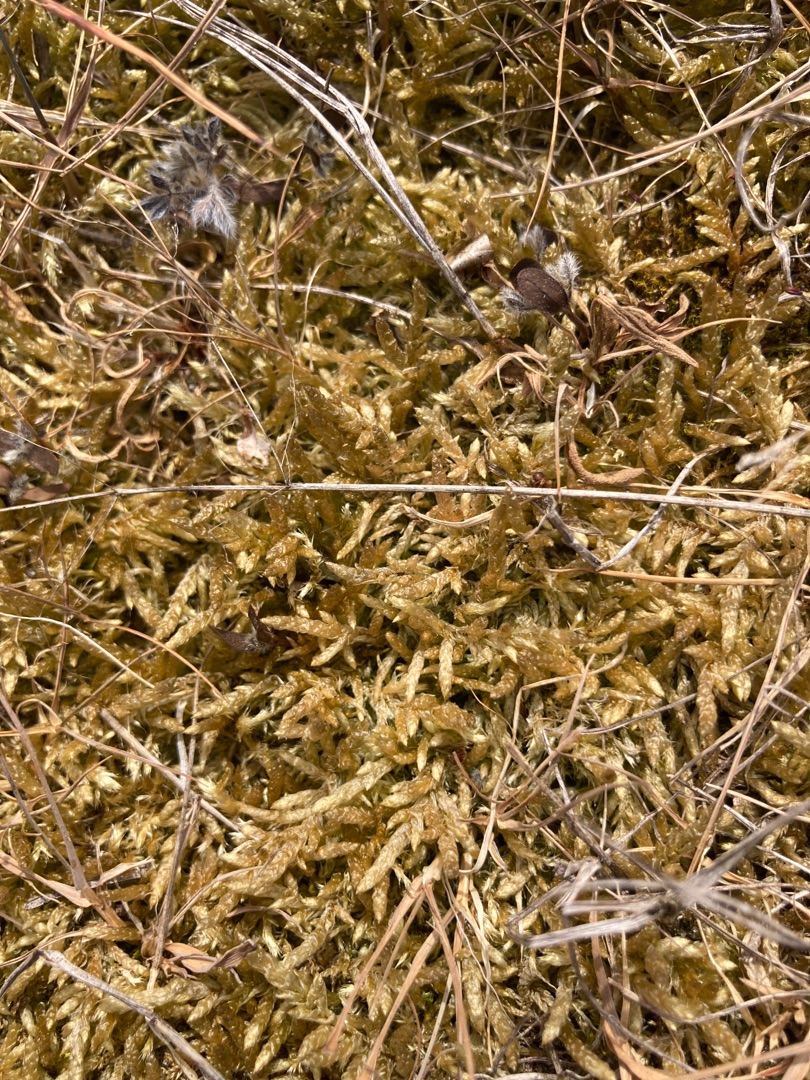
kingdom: Plantae
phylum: Bryophyta
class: Bryopsida
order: Hypnales
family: Brachytheciaceae
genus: Pseudoscleropodium
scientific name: Pseudoscleropodium purum
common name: Hulbladet fedtmos
